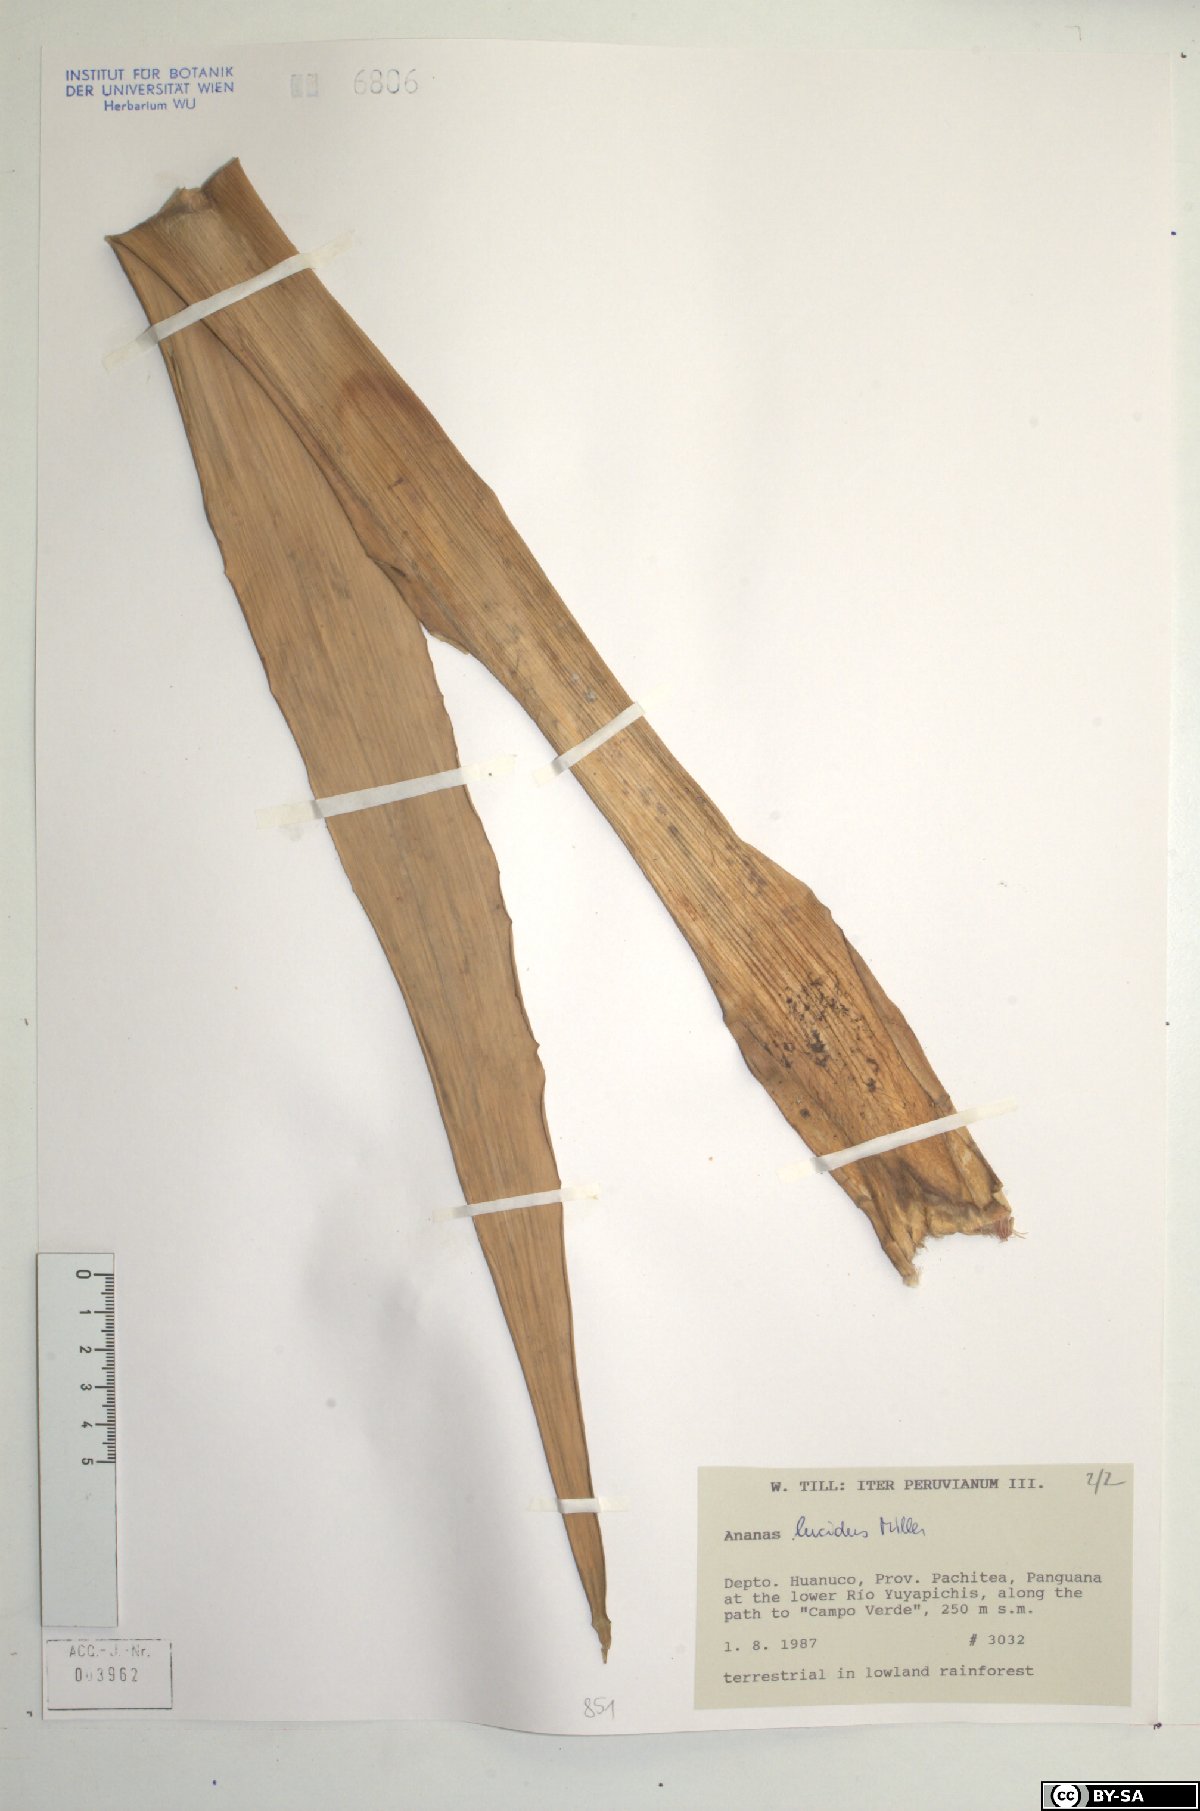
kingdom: Plantae
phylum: Tracheophyta
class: Liliopsida
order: Poales
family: Bromeliaceae
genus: Ananas
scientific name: Ananas comosus
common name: Pineapple
